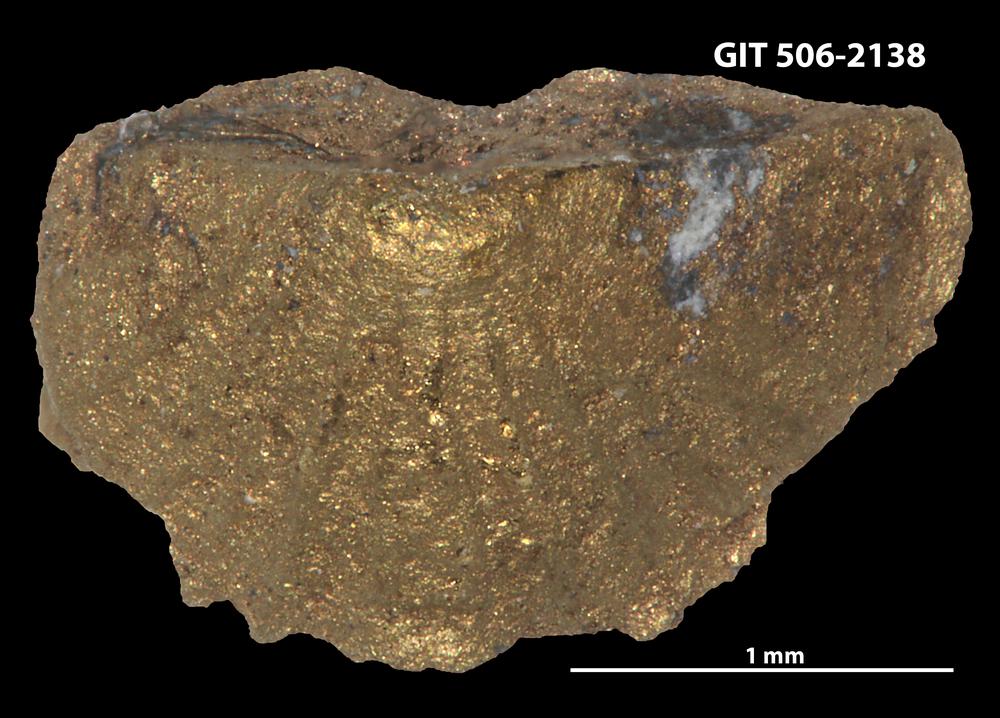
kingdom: Animalia
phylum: Brachiopoda
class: Rhynchonellata
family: Skenidiidae
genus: Skenidioides
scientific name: Skenidioides petrasi
